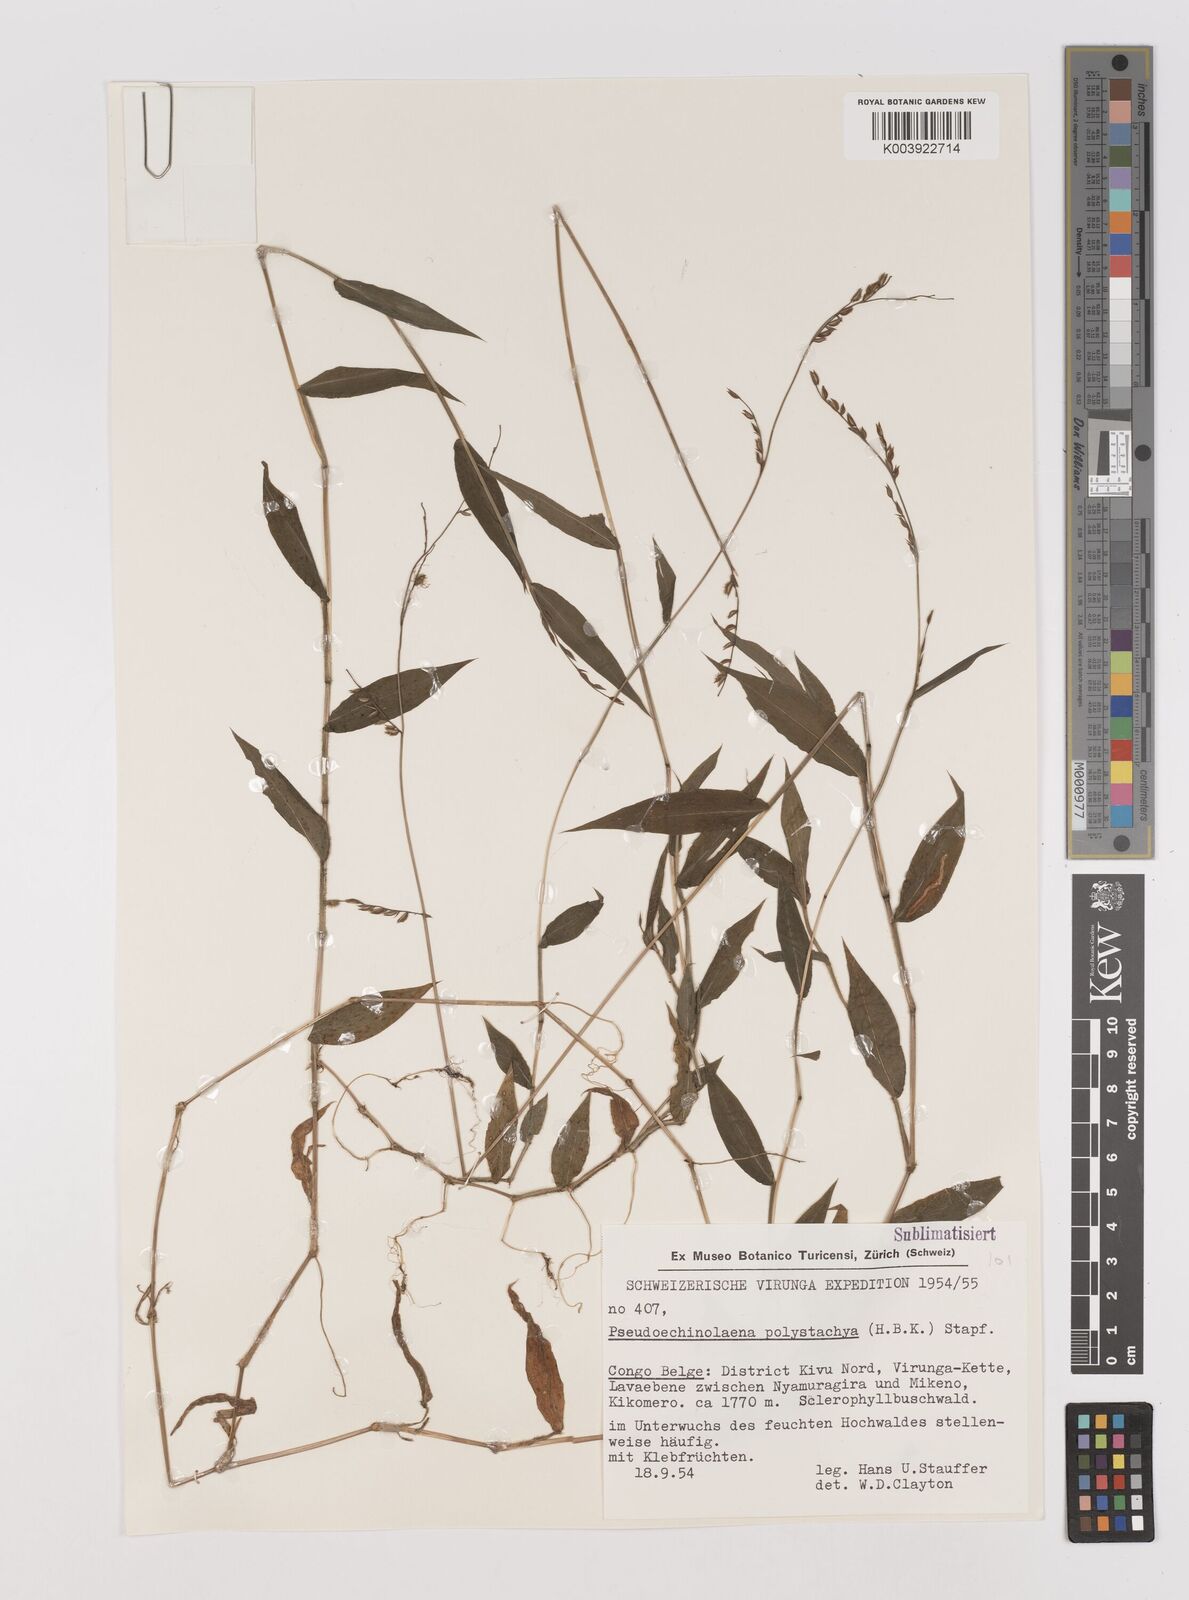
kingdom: Plantae
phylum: Tracheophyta
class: Liliopsida
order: Poales
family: Poaceae
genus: Pseudechinolaena
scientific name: Pseudechinolaena polystachya
